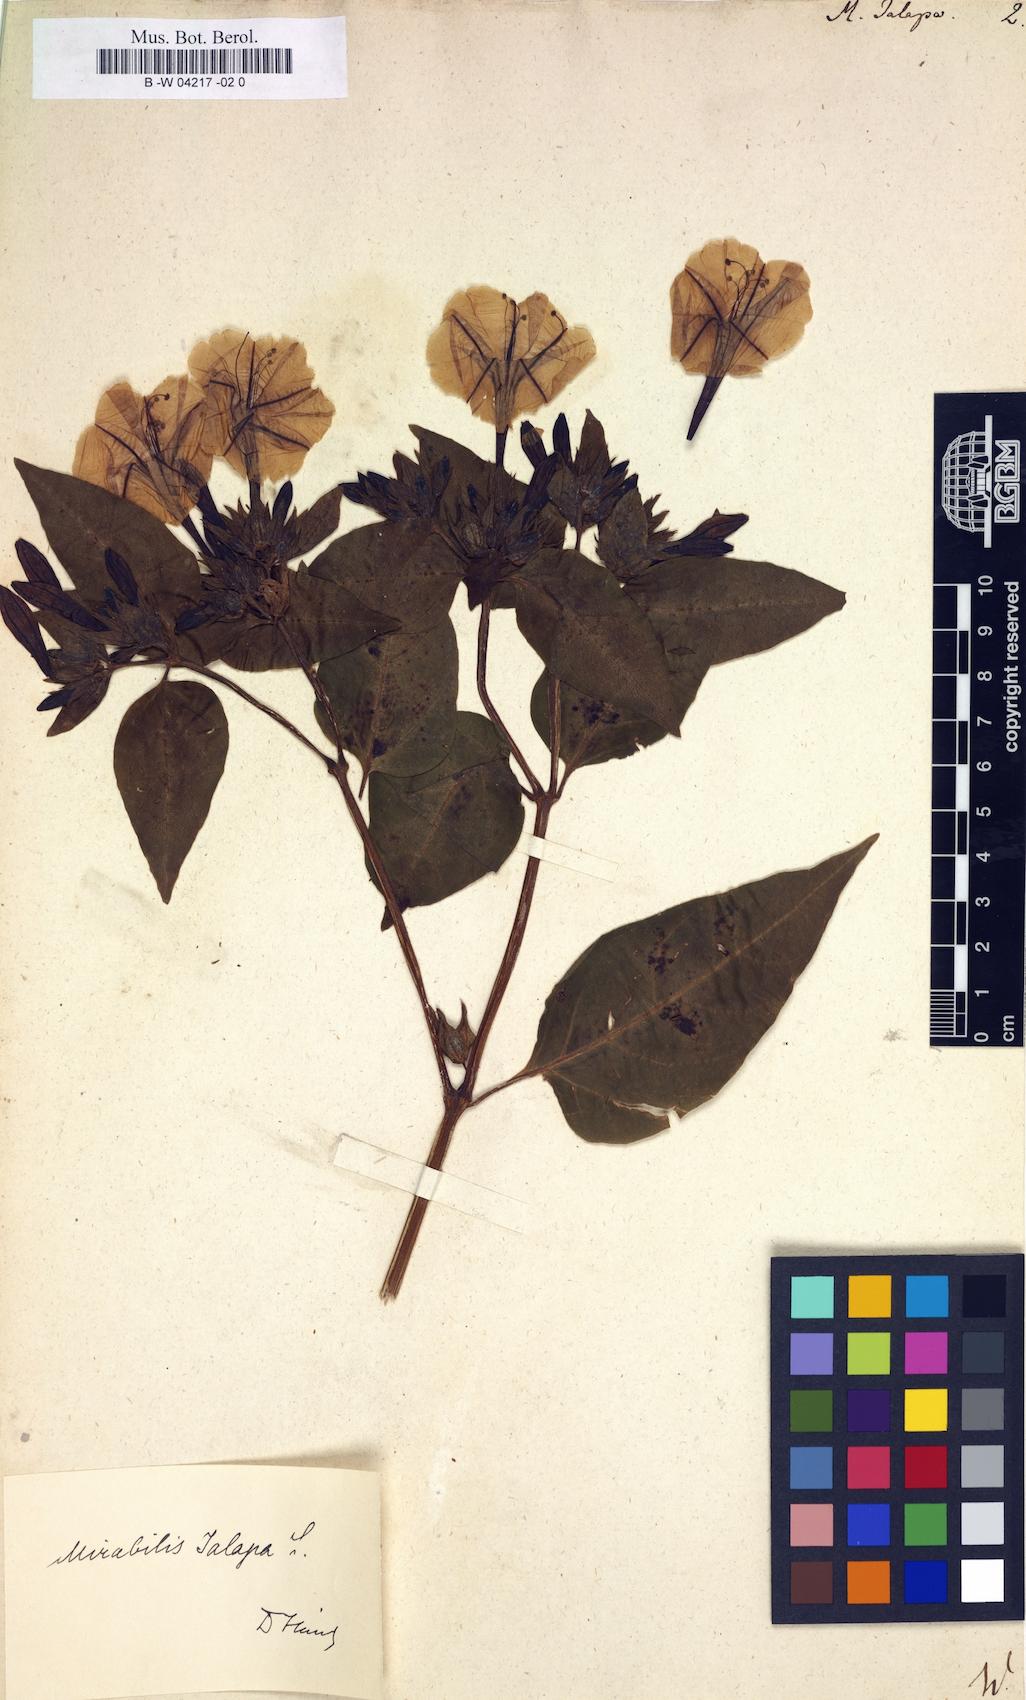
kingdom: Plantae
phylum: Tracheophyta
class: Magnoliopsida
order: Caryophyllales
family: Nyctaginaceae
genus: Mirabilis
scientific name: Mirabilis jalapa
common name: Marvel-of-peru
